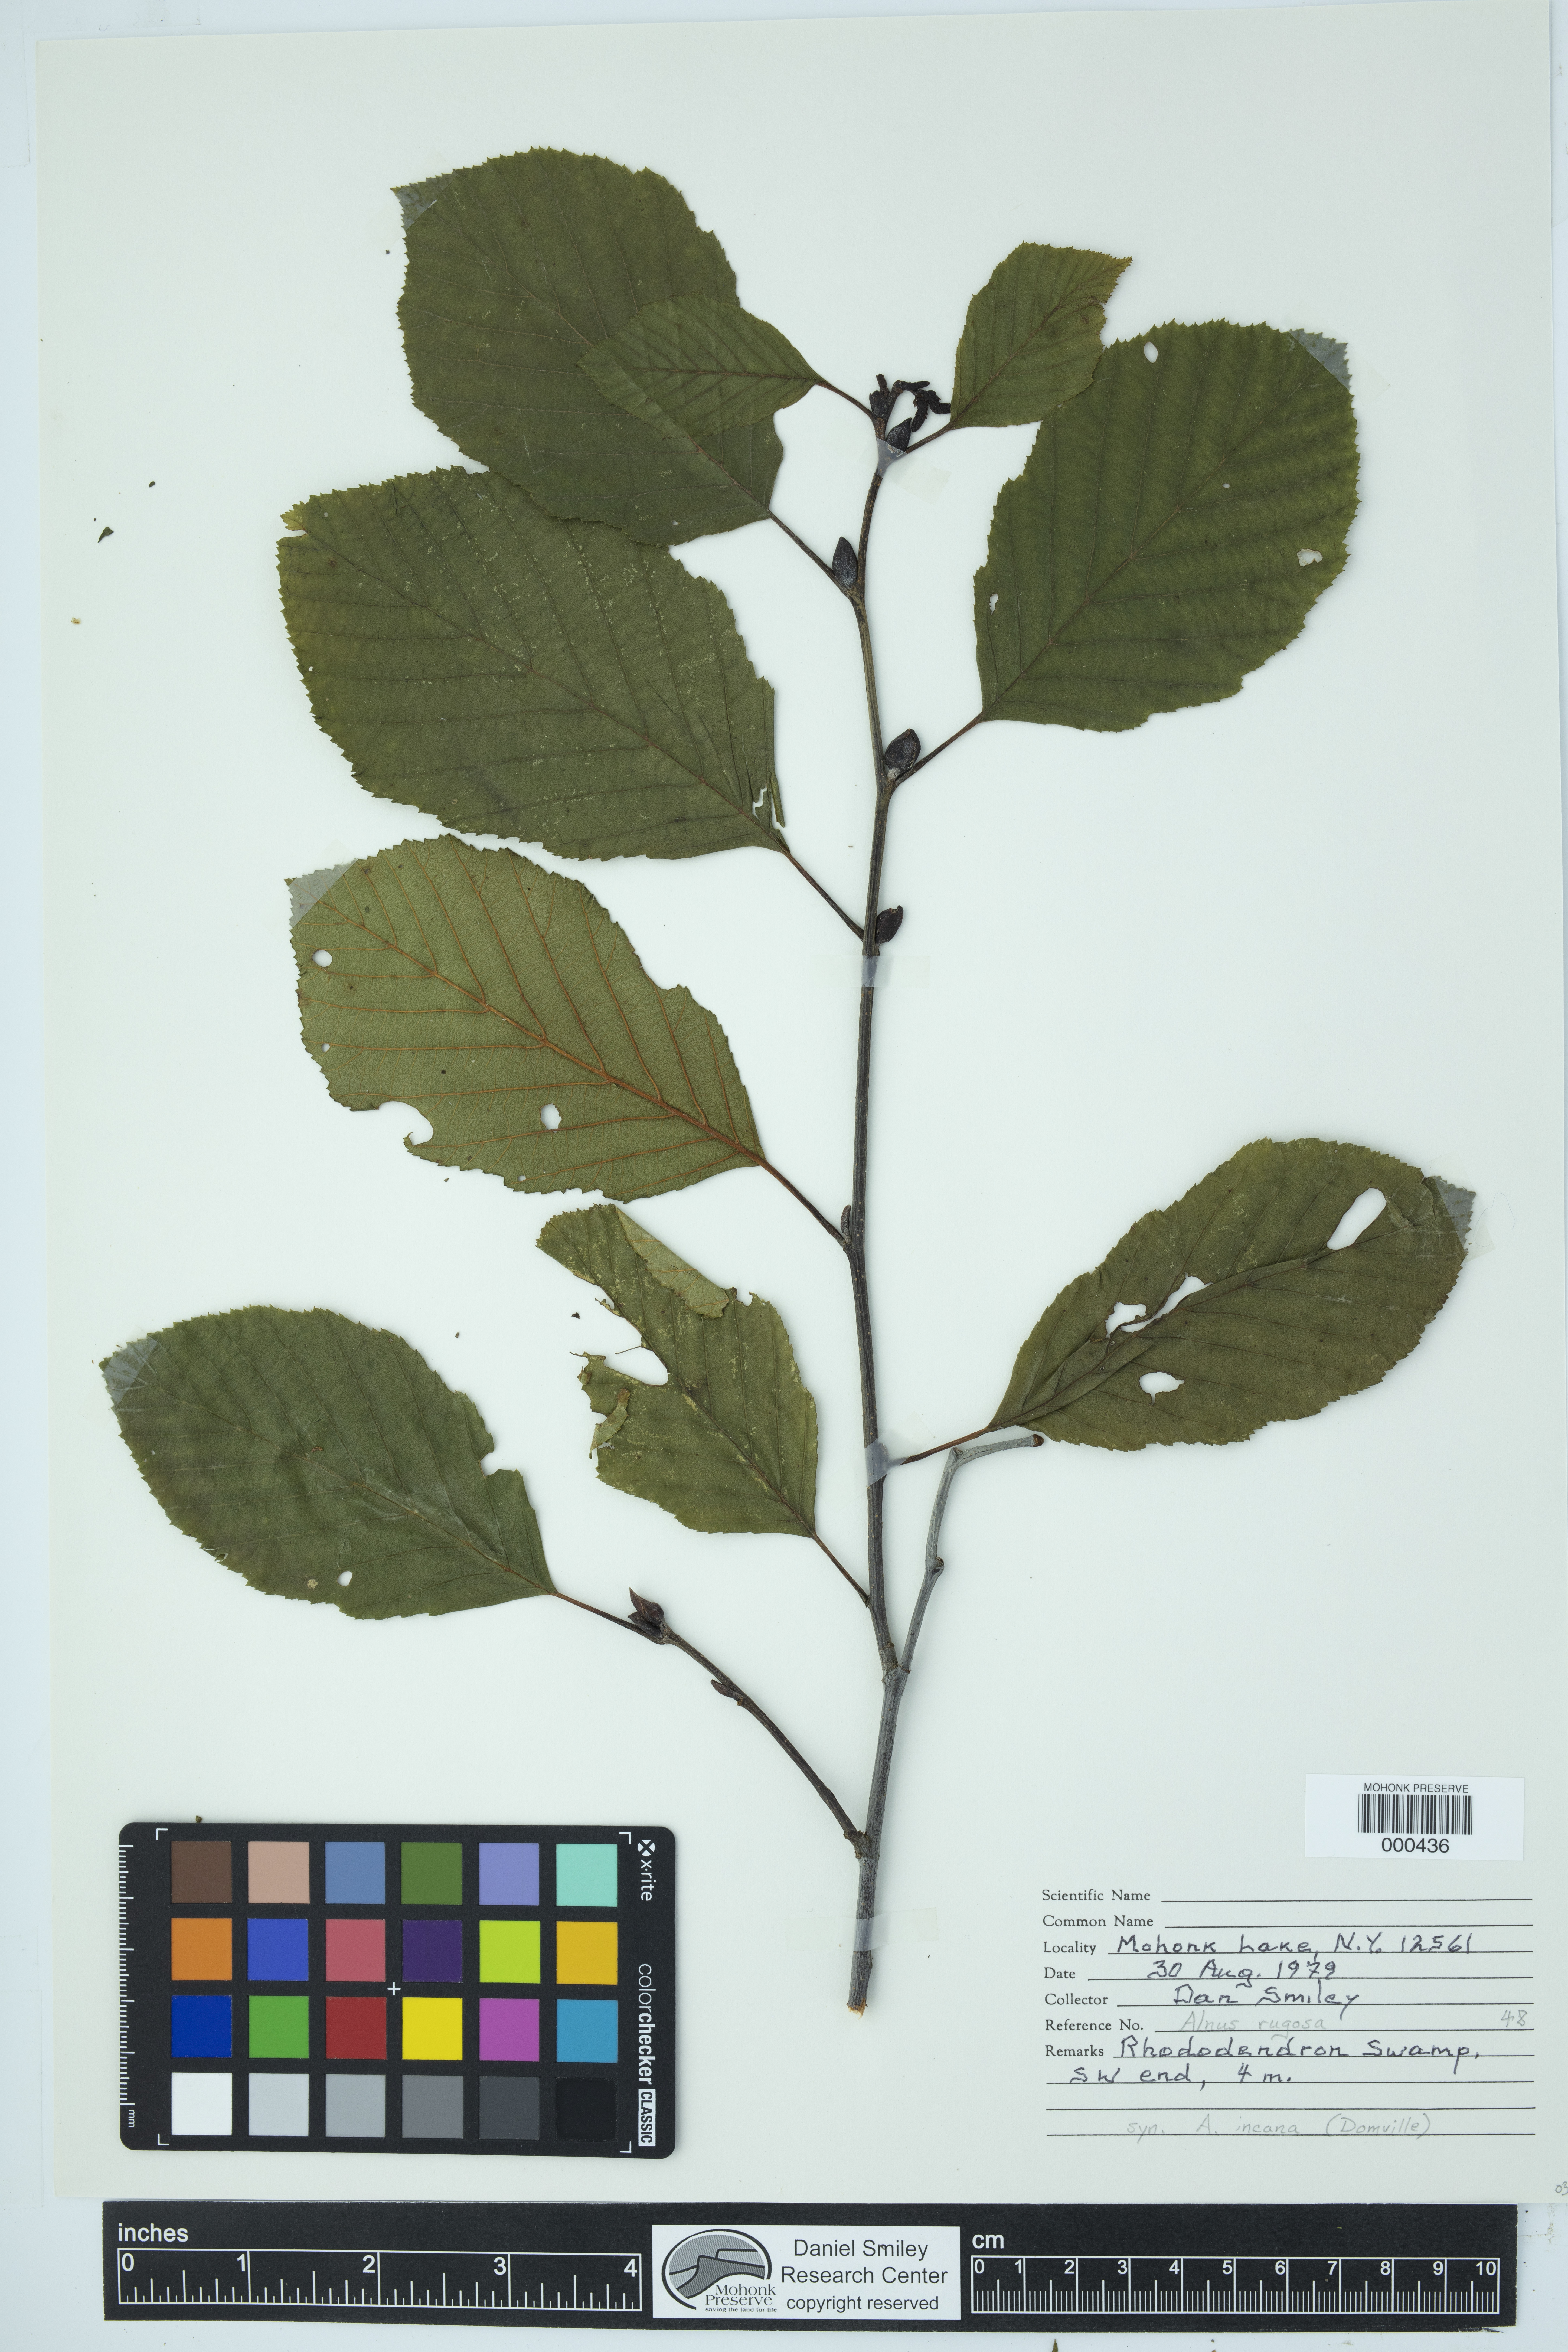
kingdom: Plantae
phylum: Tracheophyta
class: Magnoliopsida
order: Fagales
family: Betulaceae
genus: Alnus
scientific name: Alnus incana
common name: Grey alder
